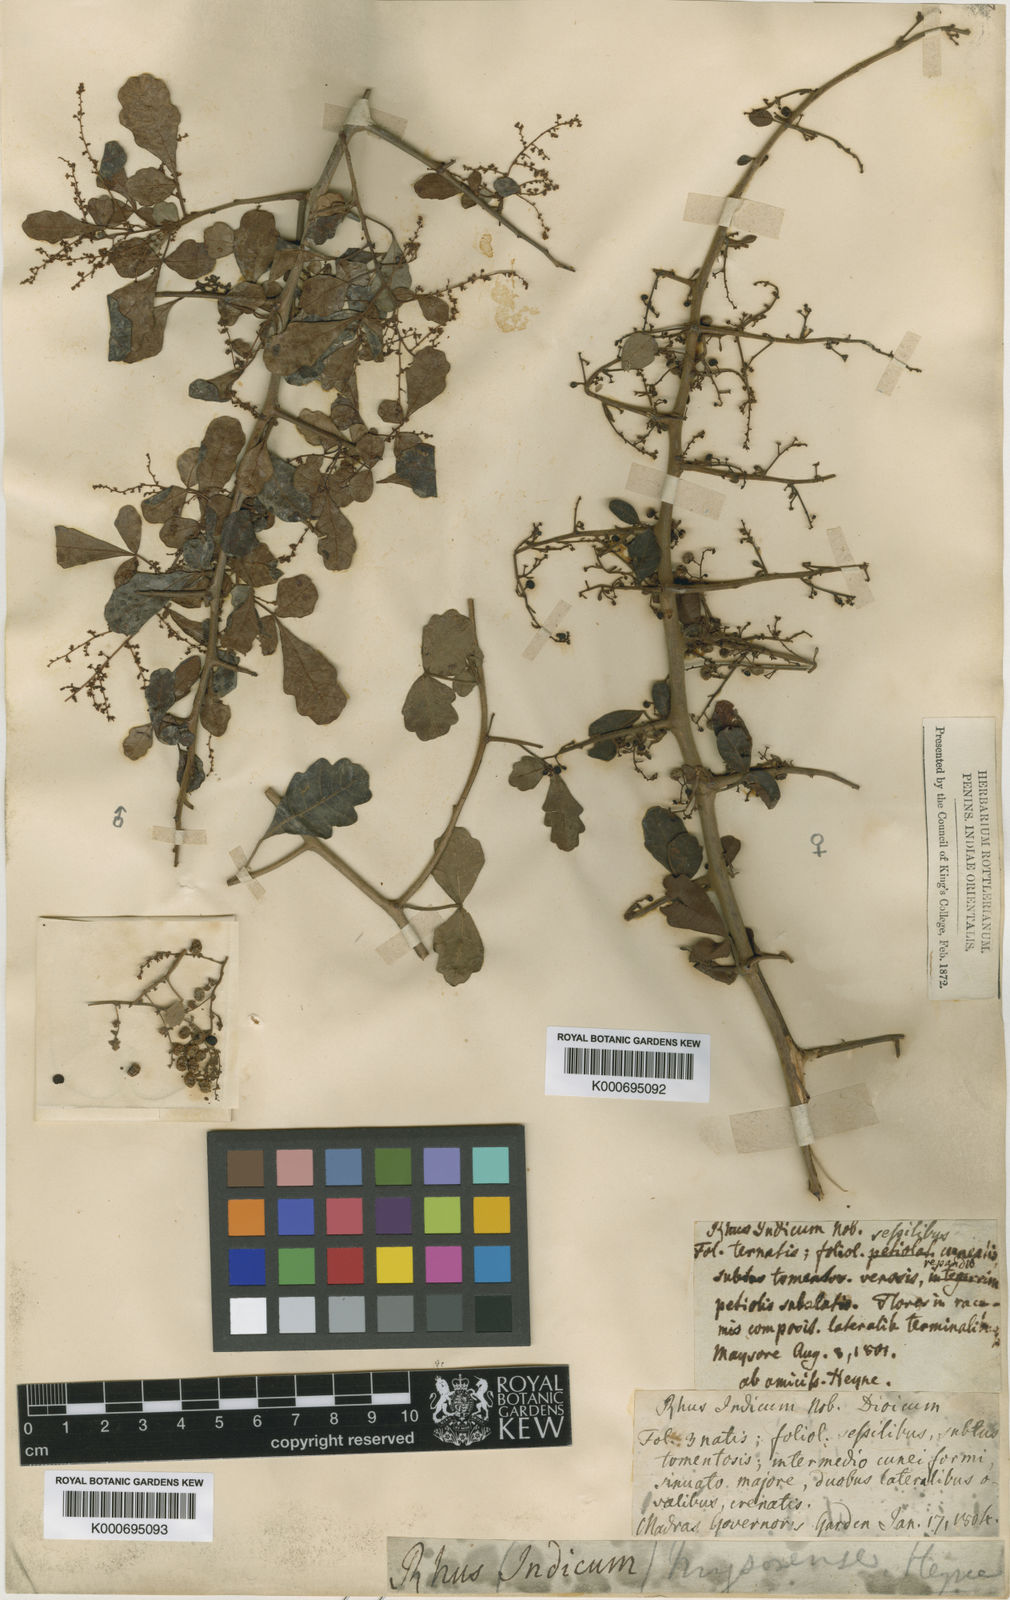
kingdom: Plantae
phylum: Tracheophyta
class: Magnoliopsida
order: Sapindales
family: Anacardiaceae
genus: Rhus
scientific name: Rhus
